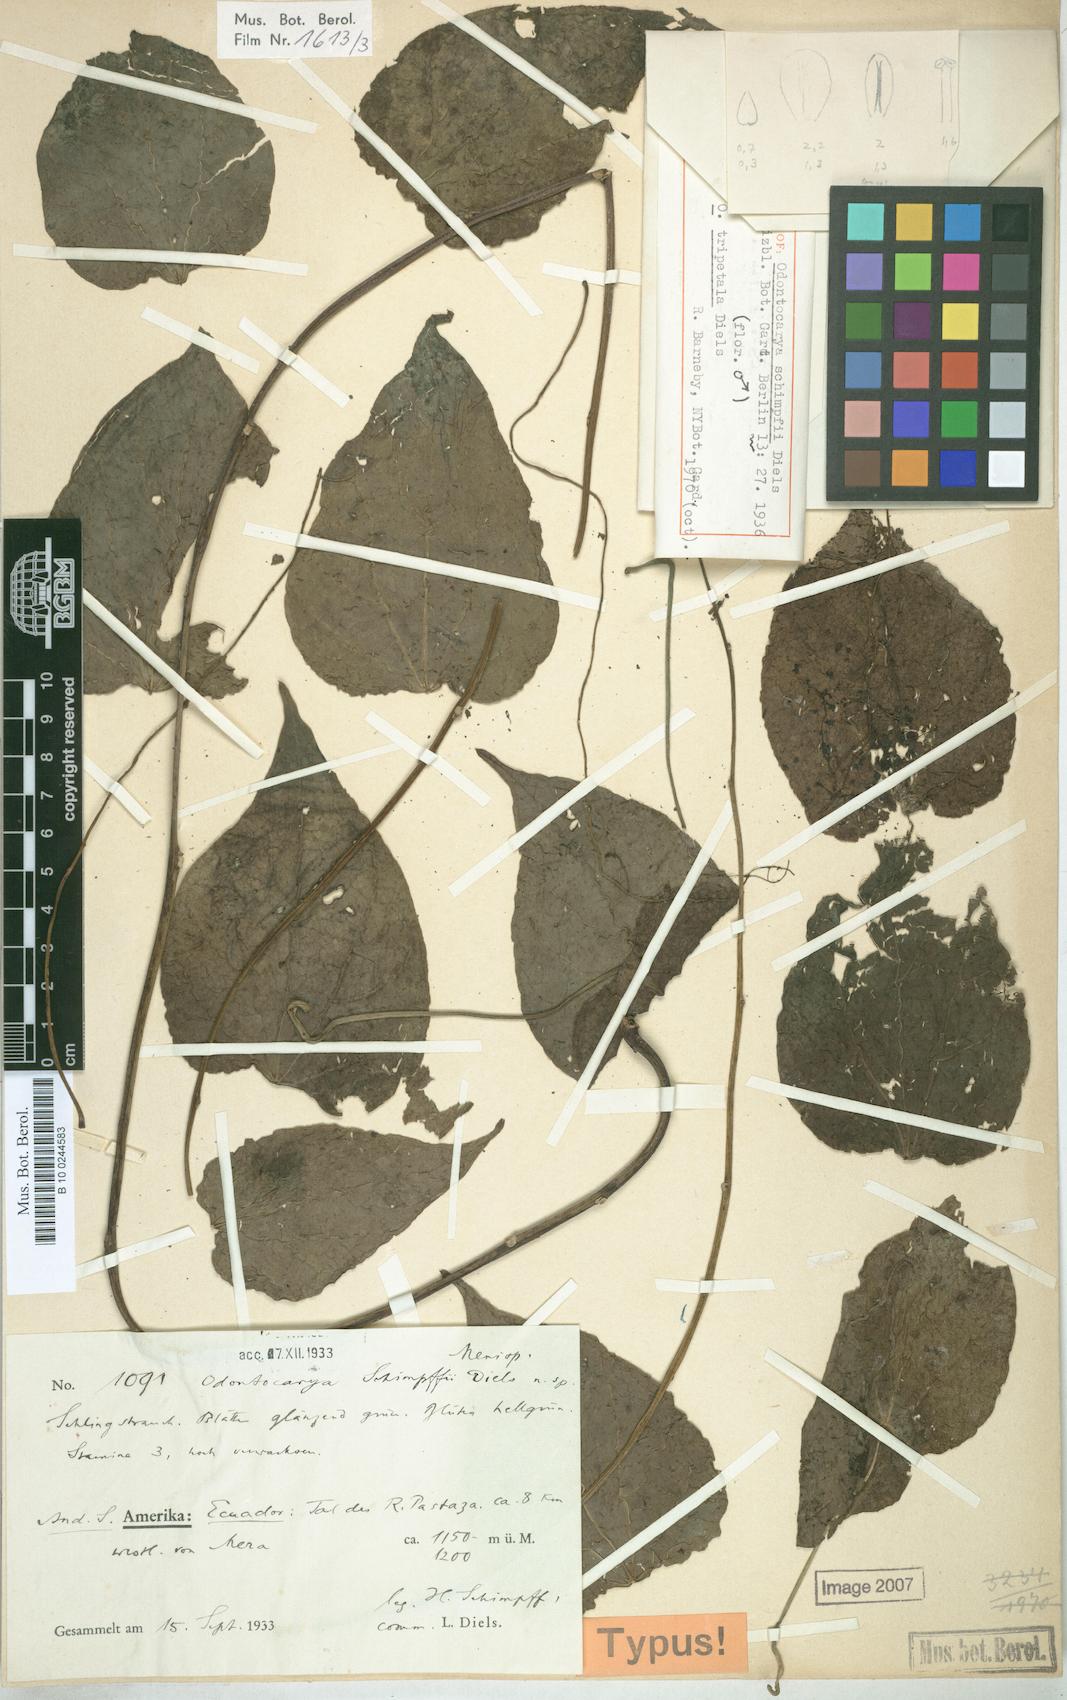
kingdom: Plantae
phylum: Tracheophyta
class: Magnoliopsida
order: Ranunculales
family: Menispermaceae
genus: Odontocarya
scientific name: Odontocarya schimpffii
